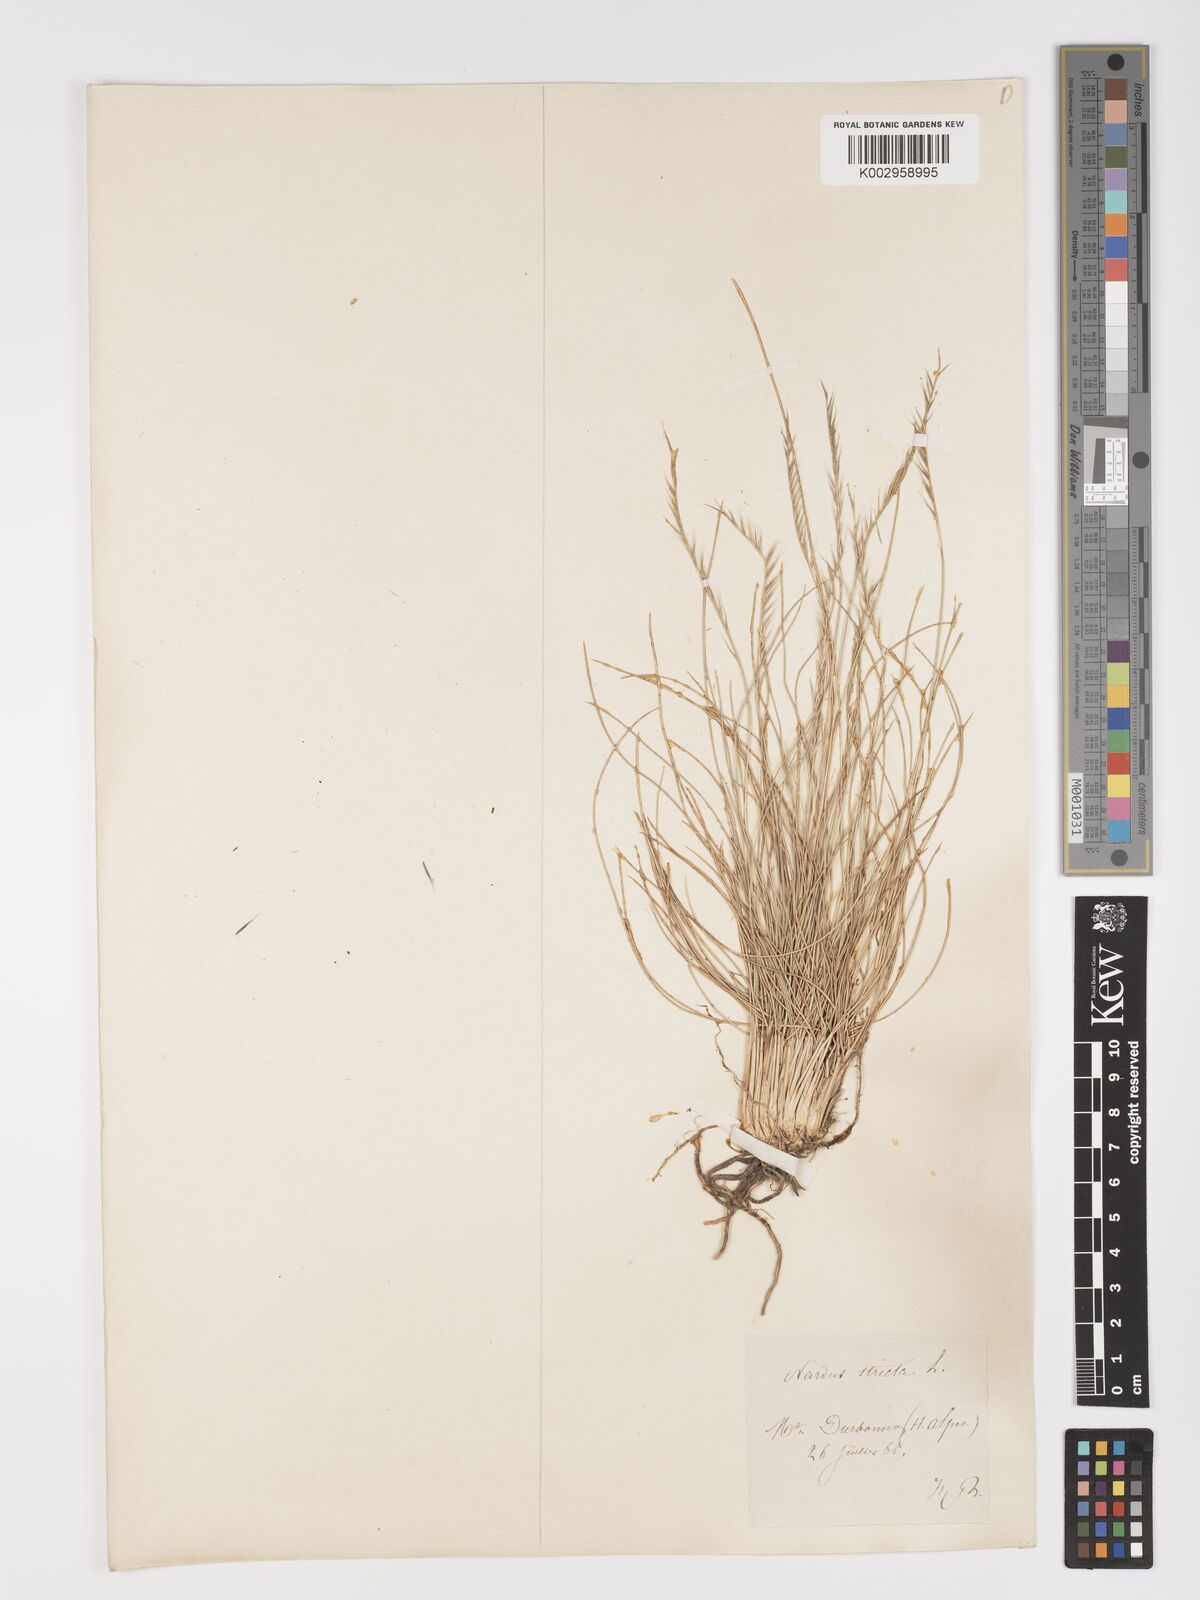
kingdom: Plantae
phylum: Tracheophyta
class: Liliopsida
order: Poales
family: Poaceae
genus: Nardus
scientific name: Nardus stricta
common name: Mat-grass
